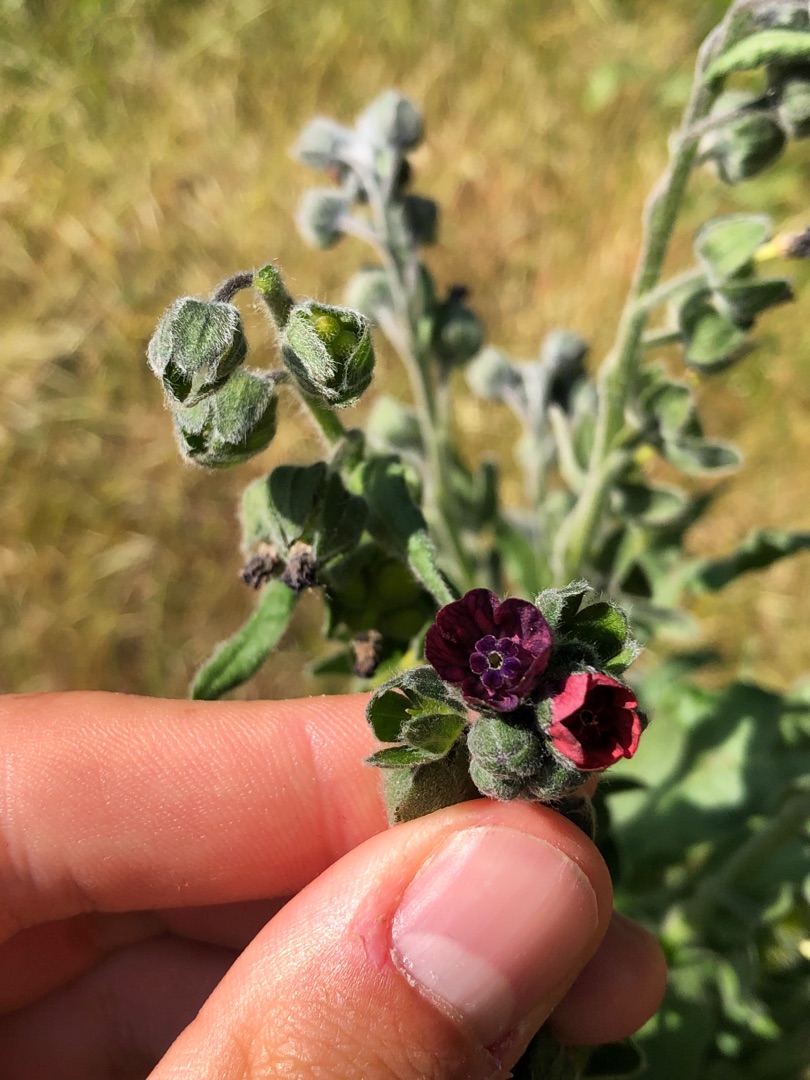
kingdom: Plantae
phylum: Tracheophyta
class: Magnoliopsida
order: Boraginales
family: Boraginaceae
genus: Cynoglossum
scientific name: Cynoglossum officinale
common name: Hundetunge
